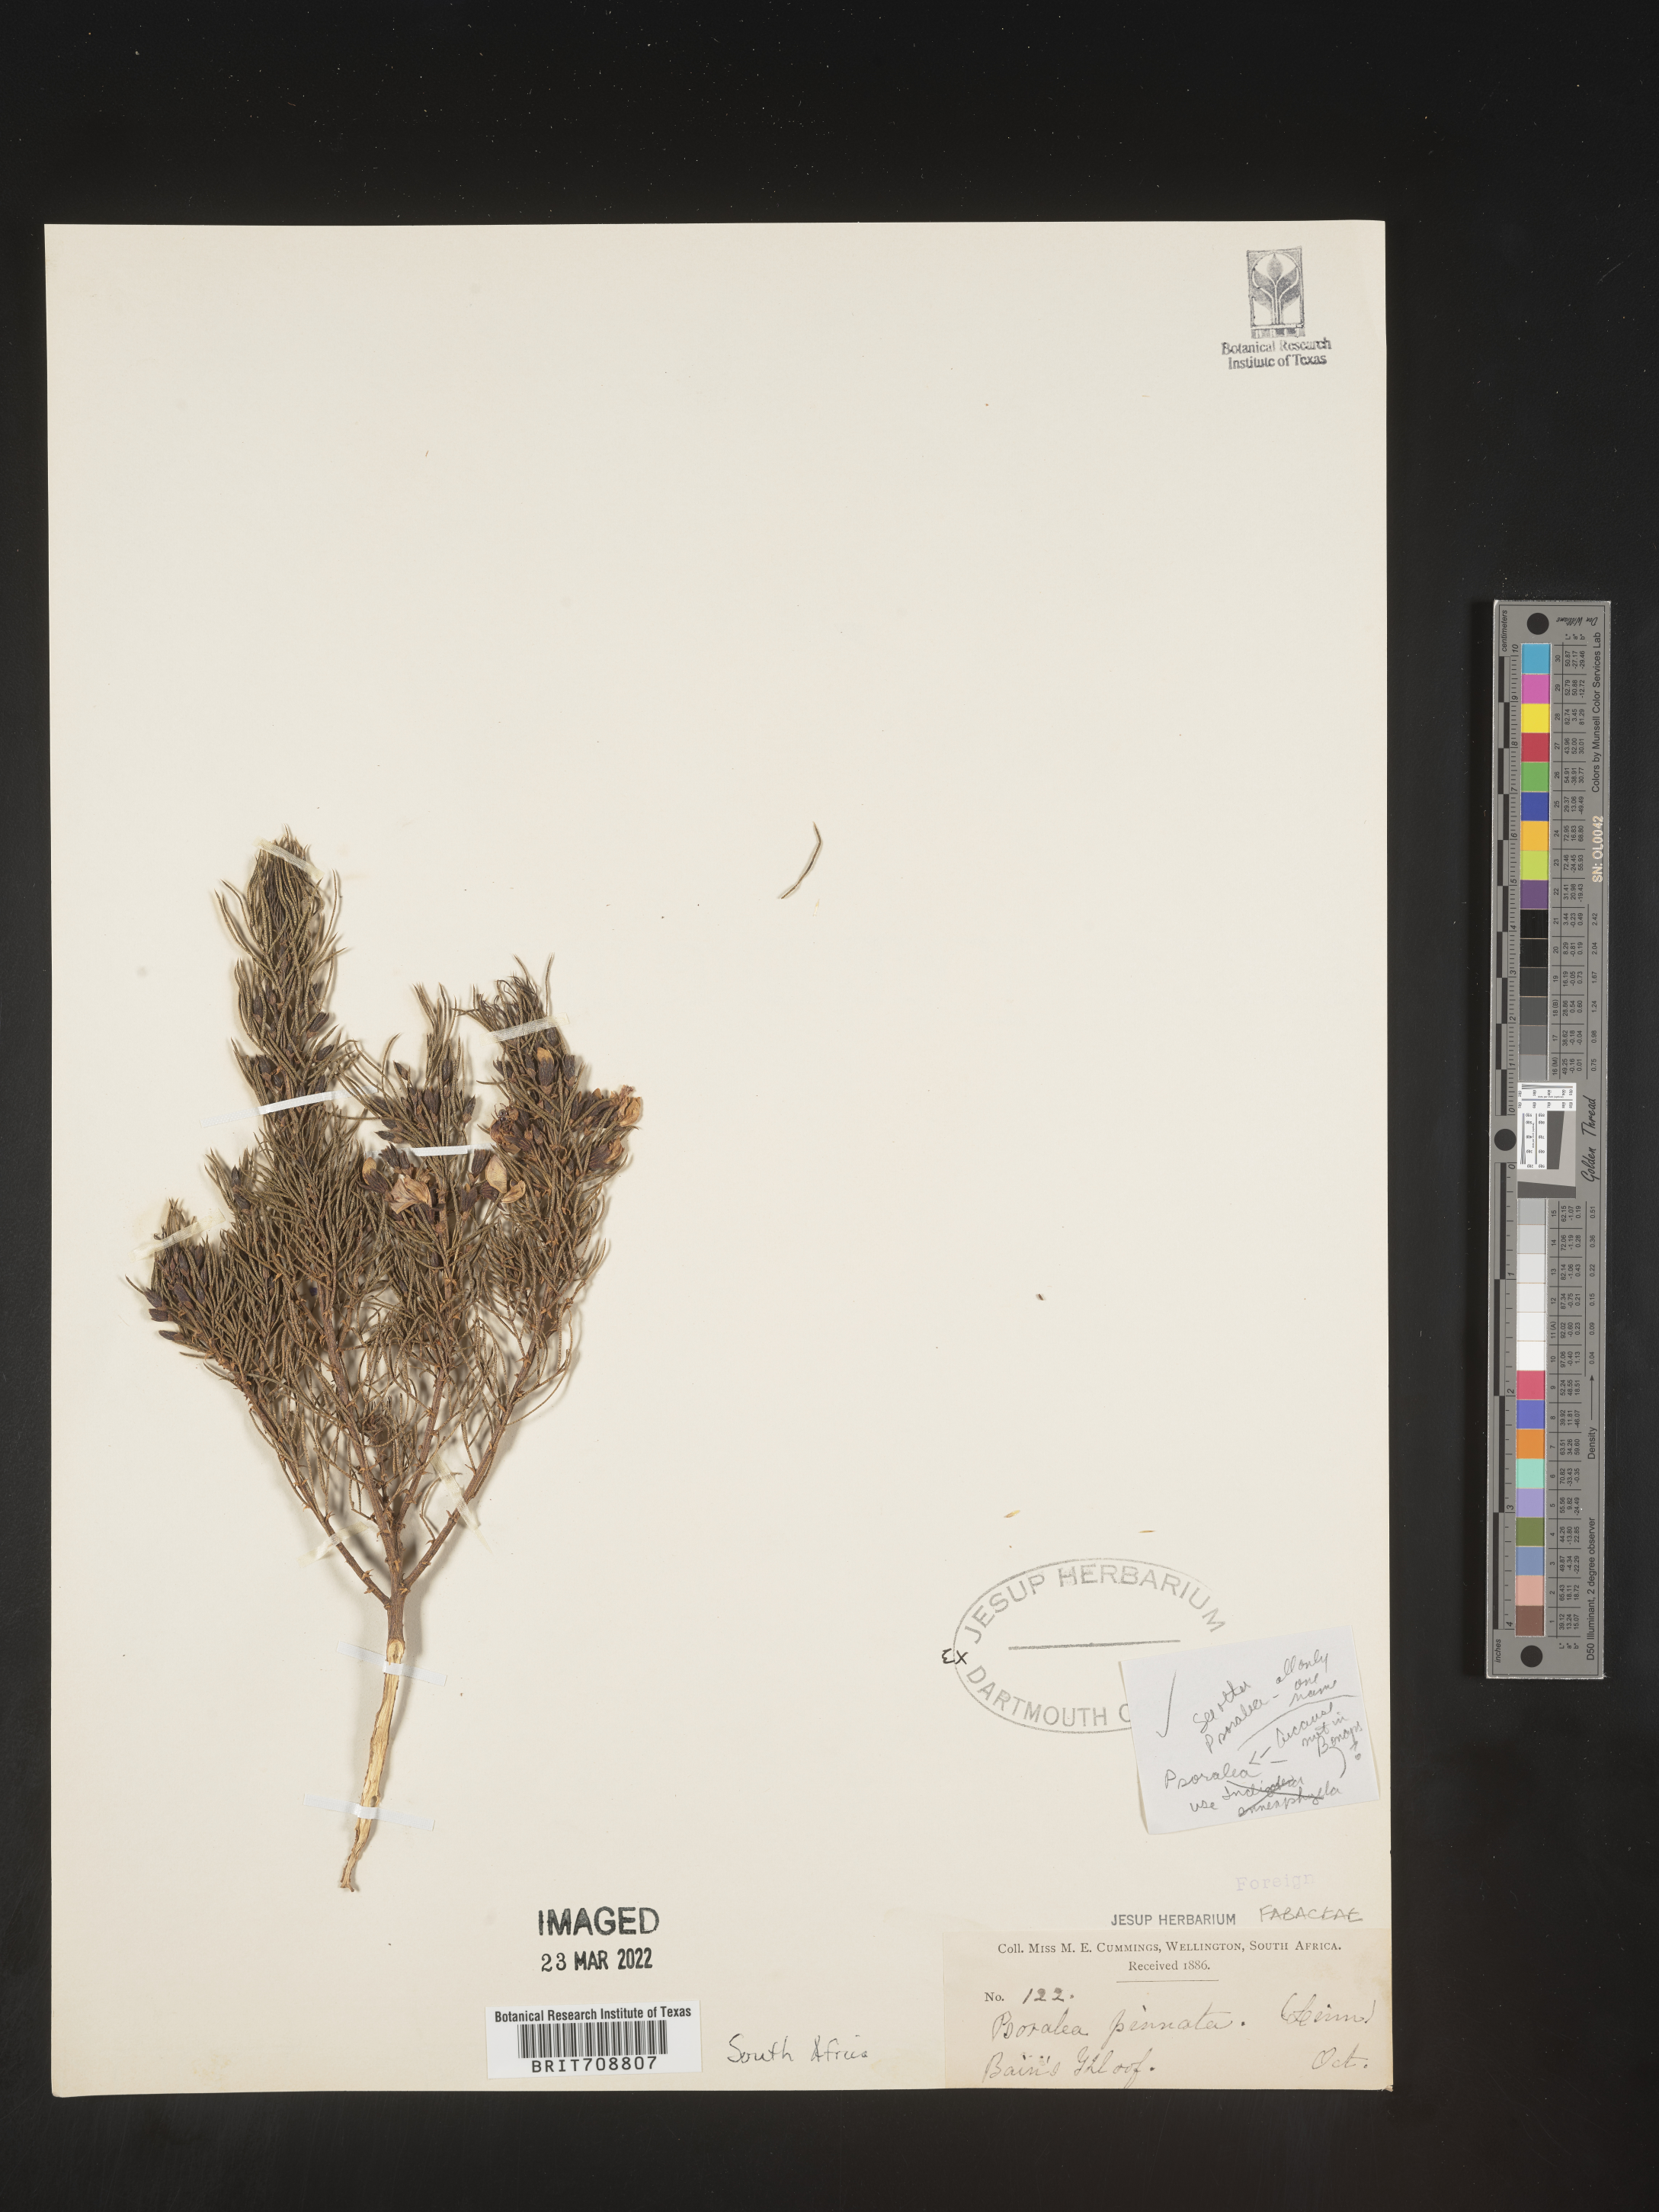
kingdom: Plantae
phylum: Tracheophyta
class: Magnoliopsida
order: Fabales
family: Fabaceae
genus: Psoralea
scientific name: Psoralea
